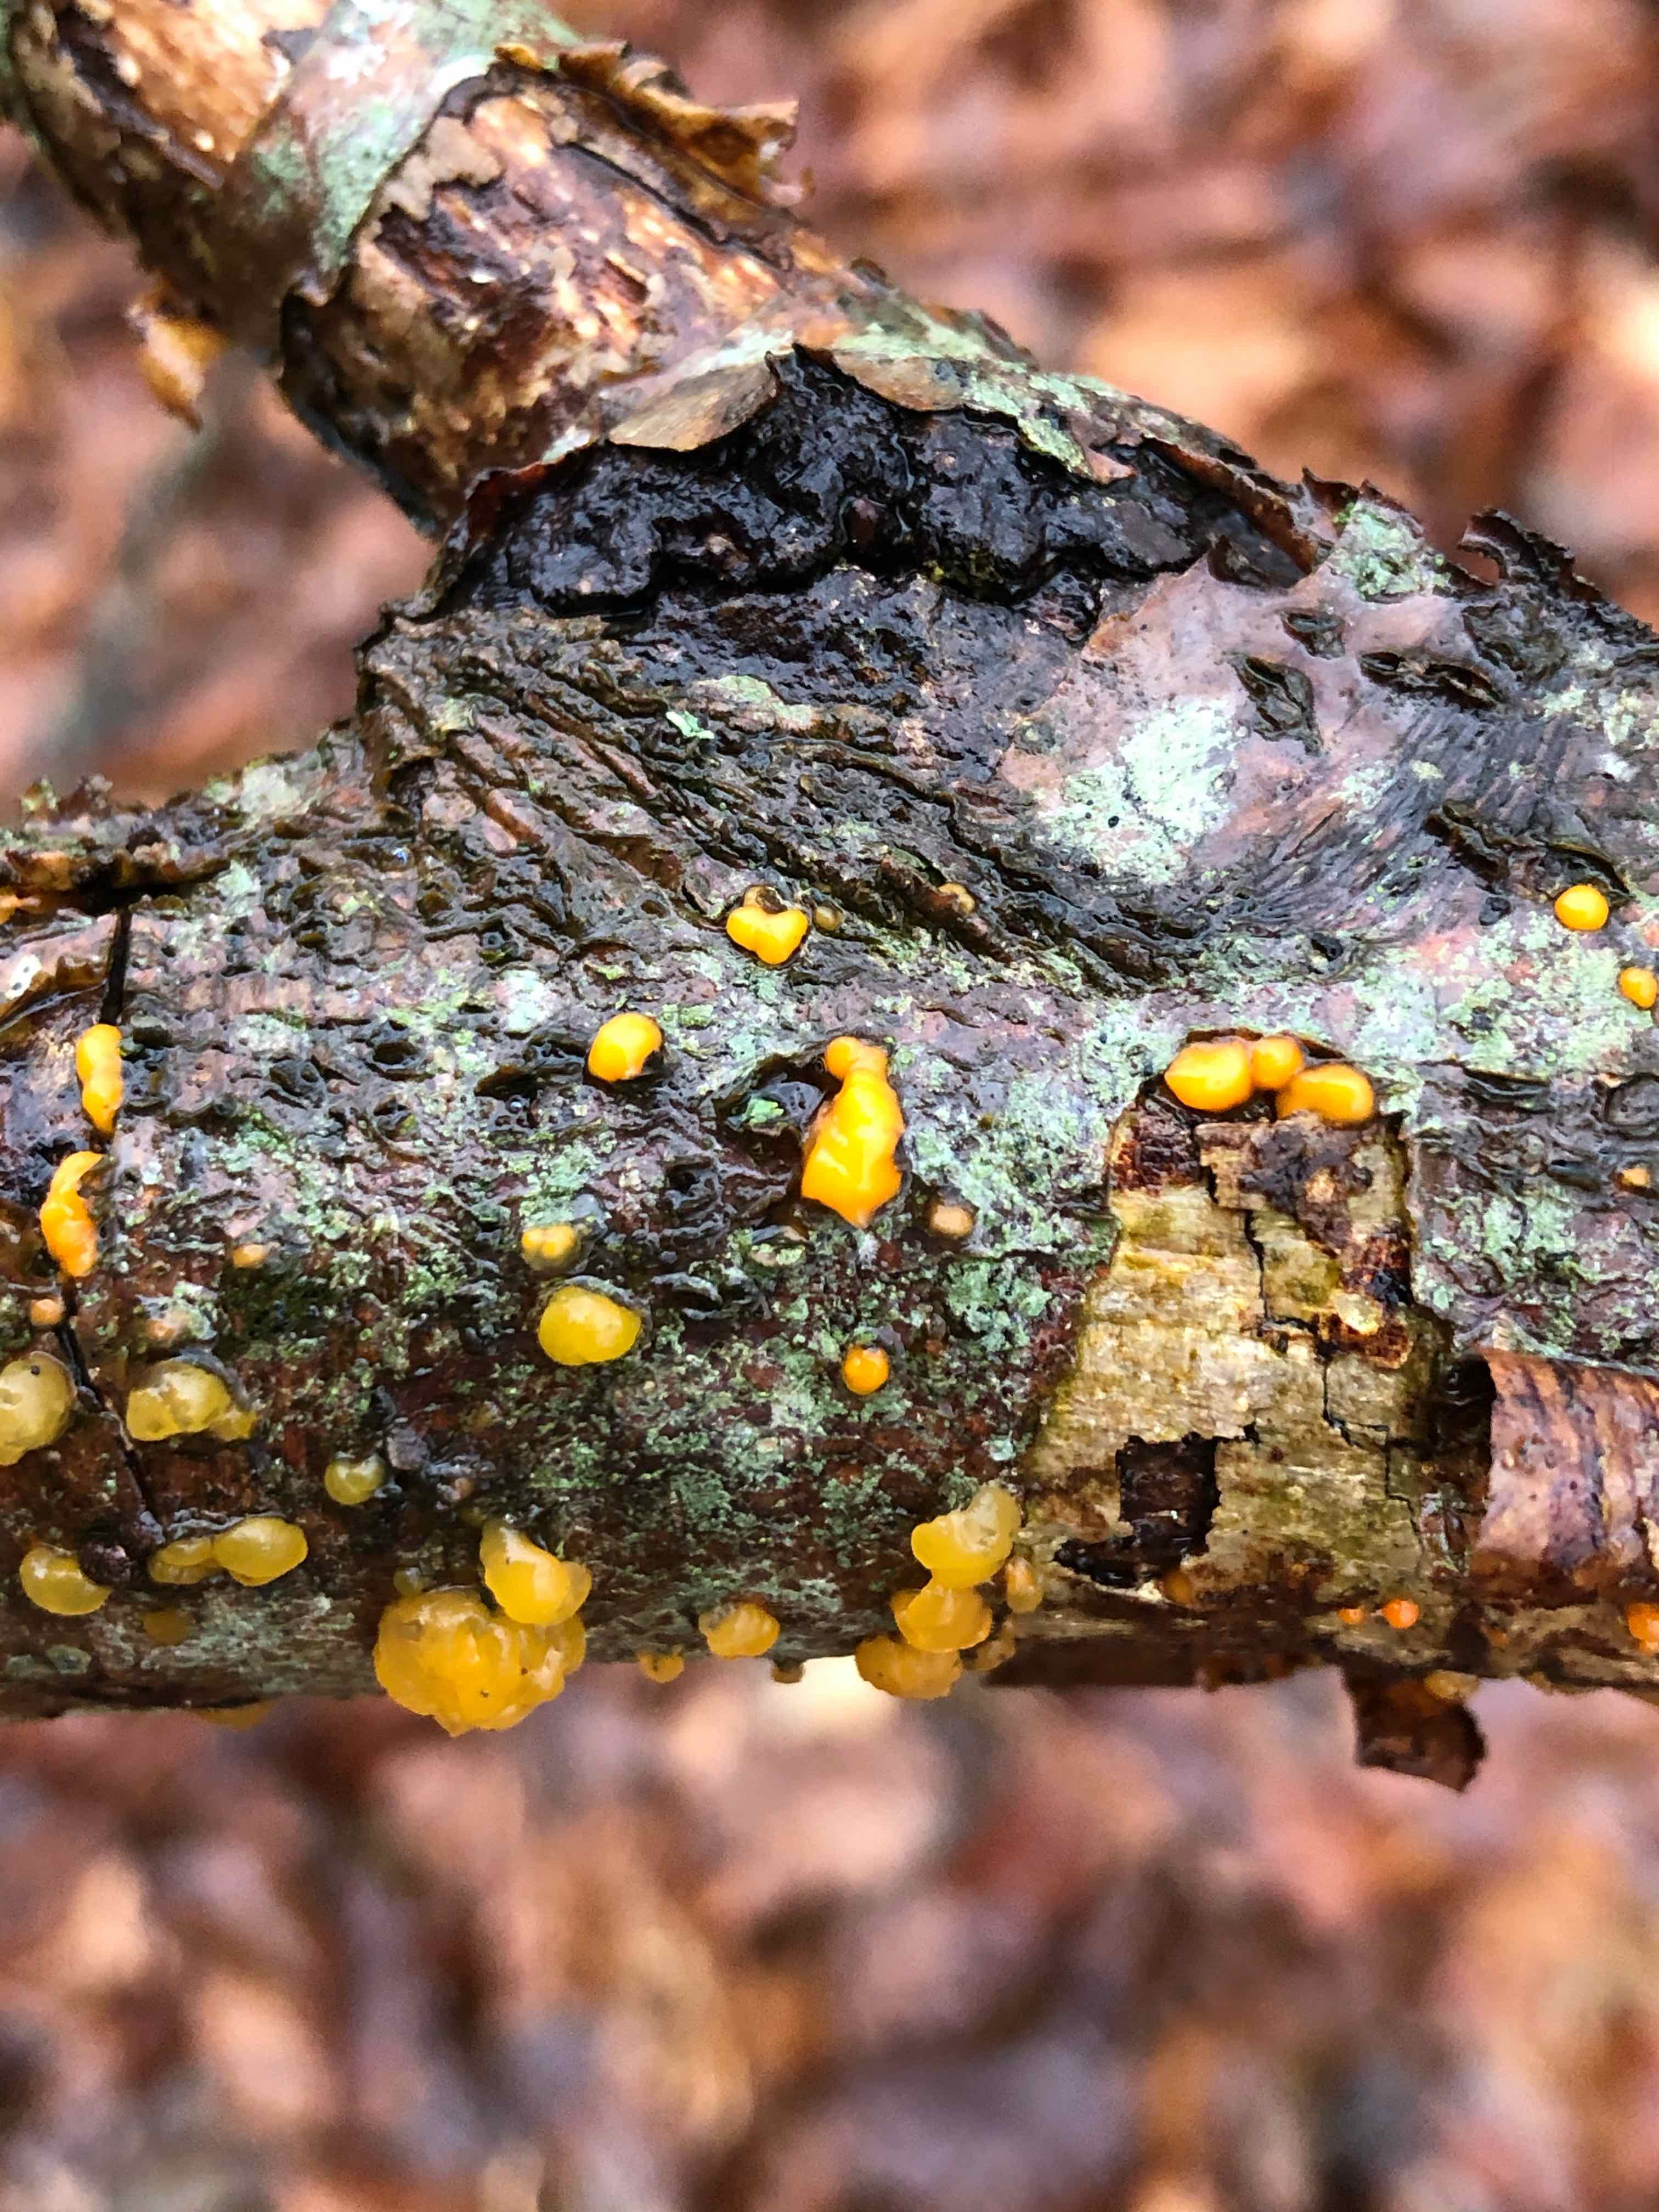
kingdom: Fungi
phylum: Basidiomycota
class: Dacrymycetes
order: Dacrymycetales
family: Dacrymycetaceae
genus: Dacrymyces
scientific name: Dacrymyces stillatus
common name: almindelig tåresvamp
